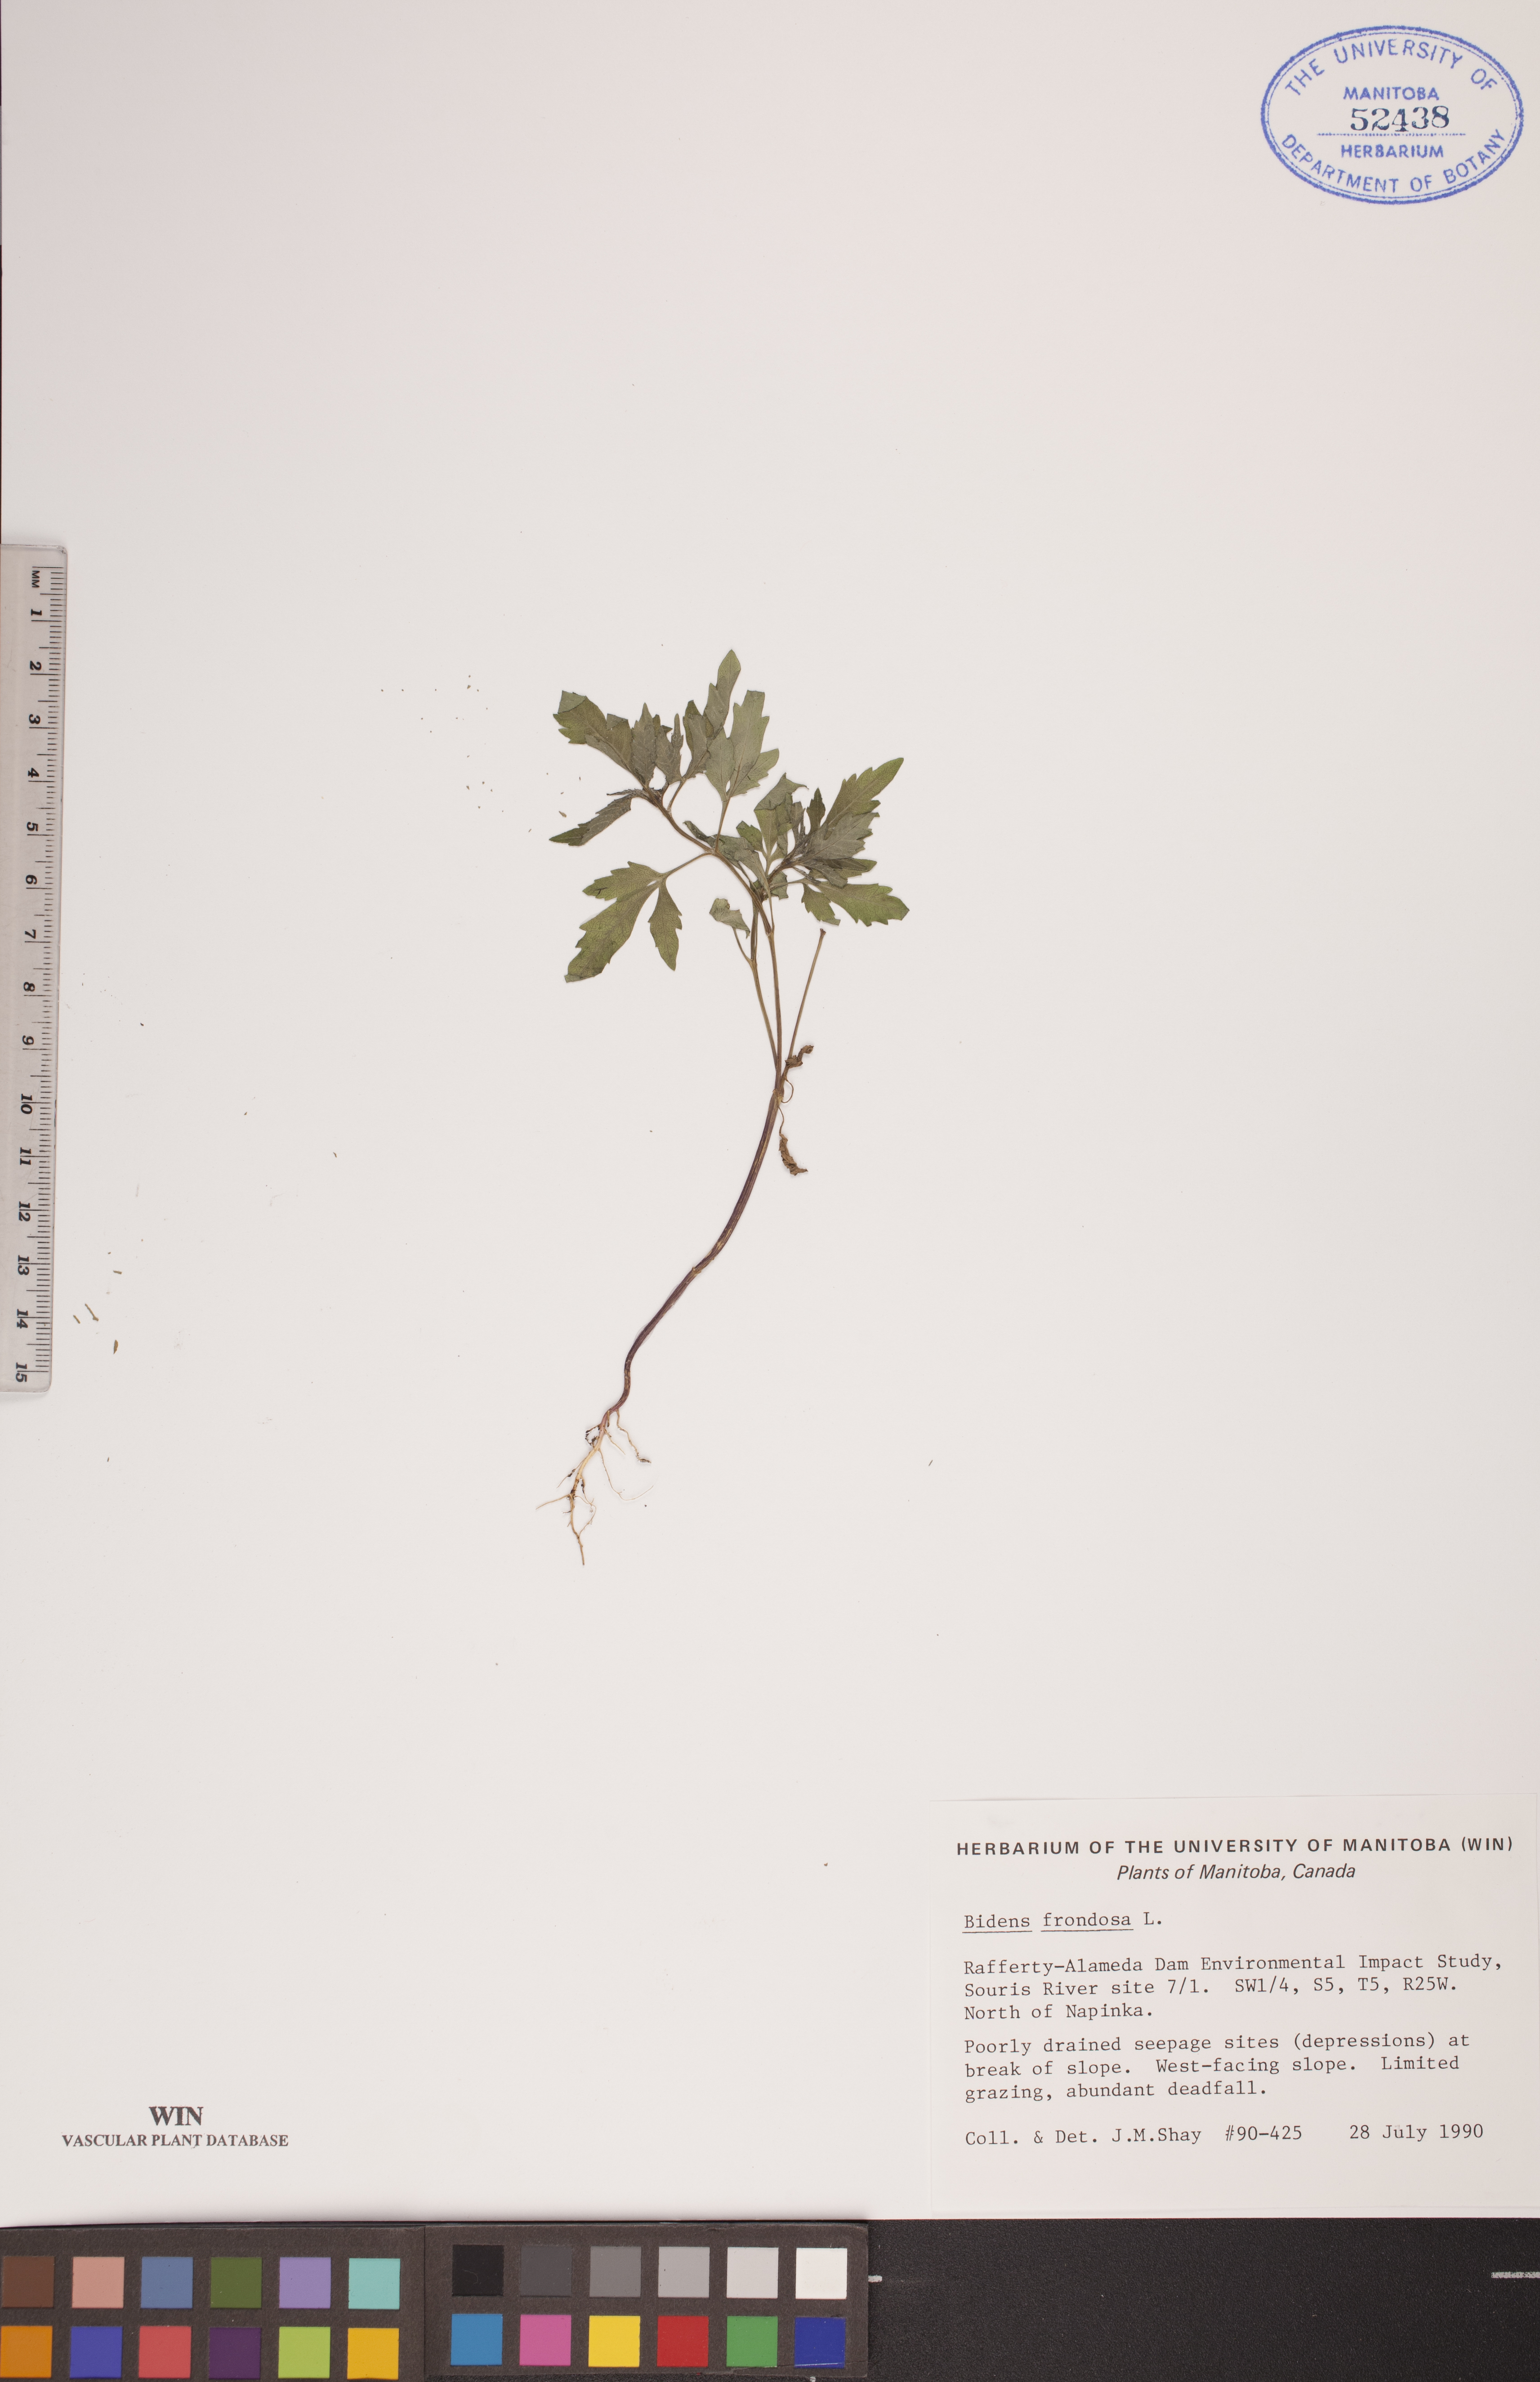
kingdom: Plantae
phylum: Tracheophyta
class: Magnoliopsida
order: Asterales
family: Asteraceae
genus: Bidens
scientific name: Bidens frondosa
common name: Beggarticks
